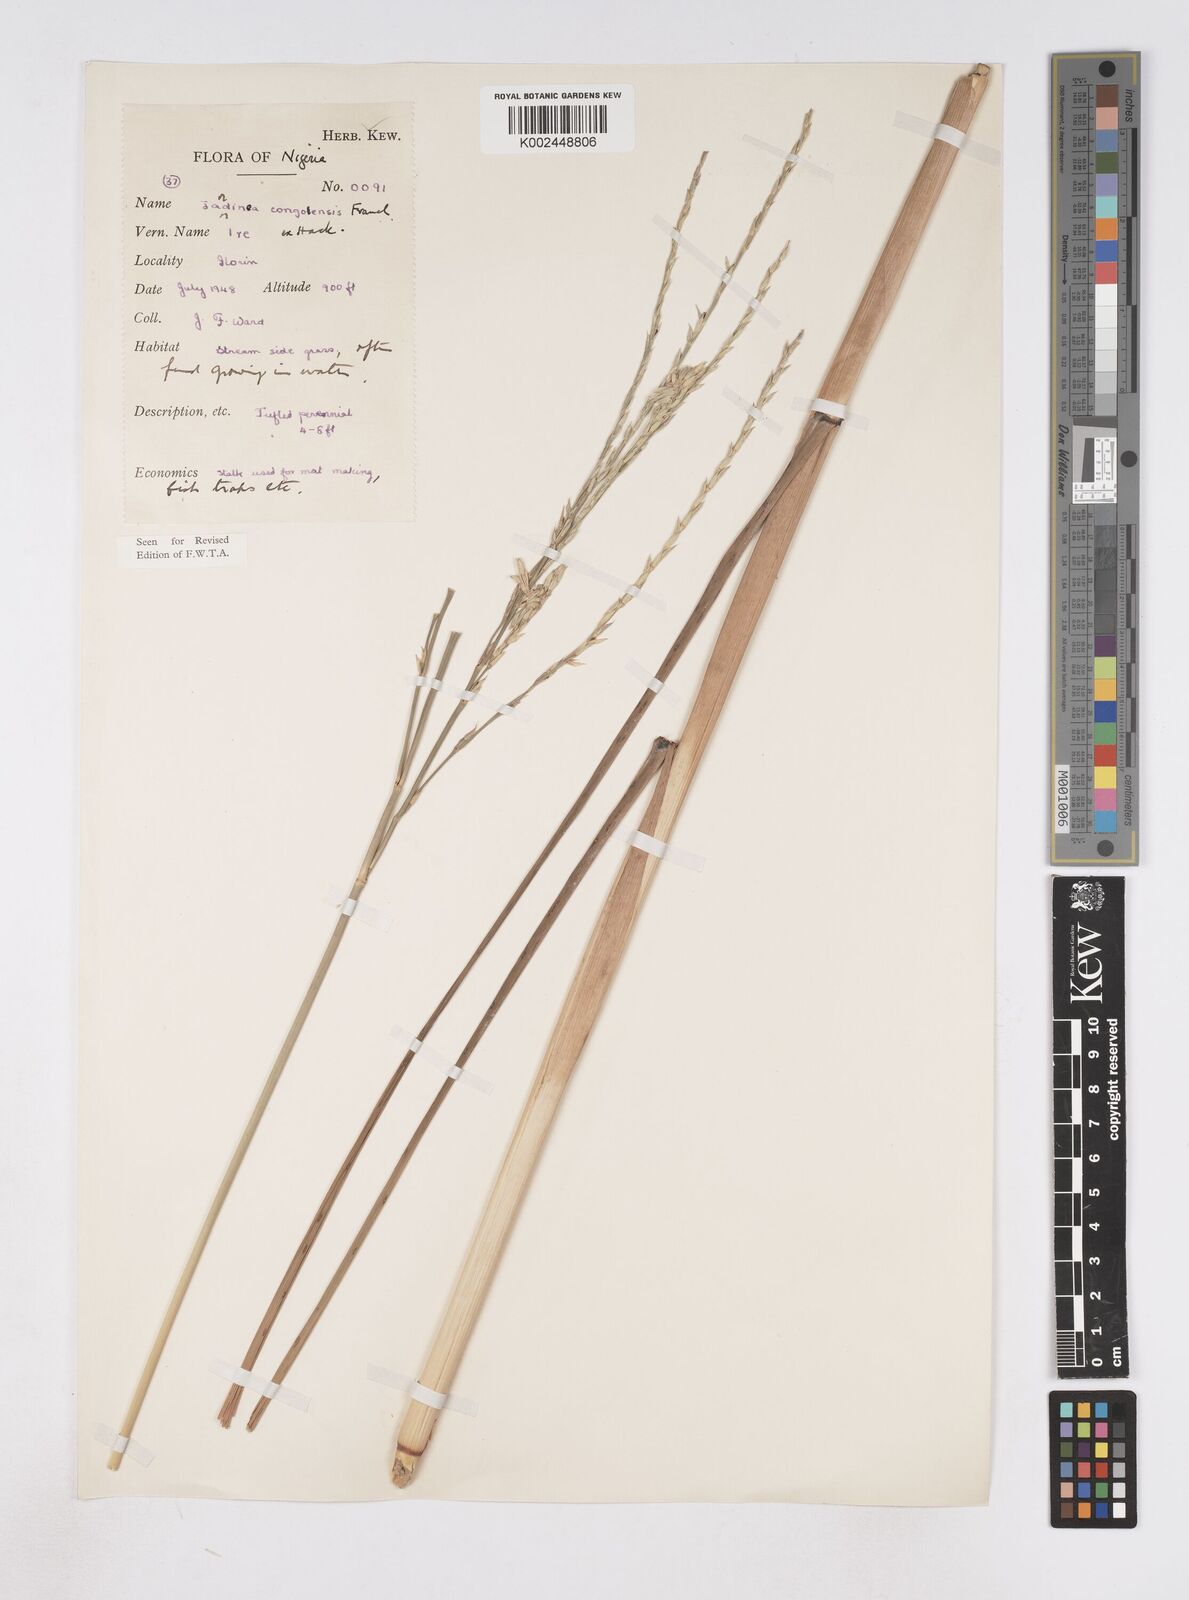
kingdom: Plantae
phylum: Tracheophyta
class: Liliopsida
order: Poales
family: Poaceae
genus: Phacelurus
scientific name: Phacelurus gabonensis
